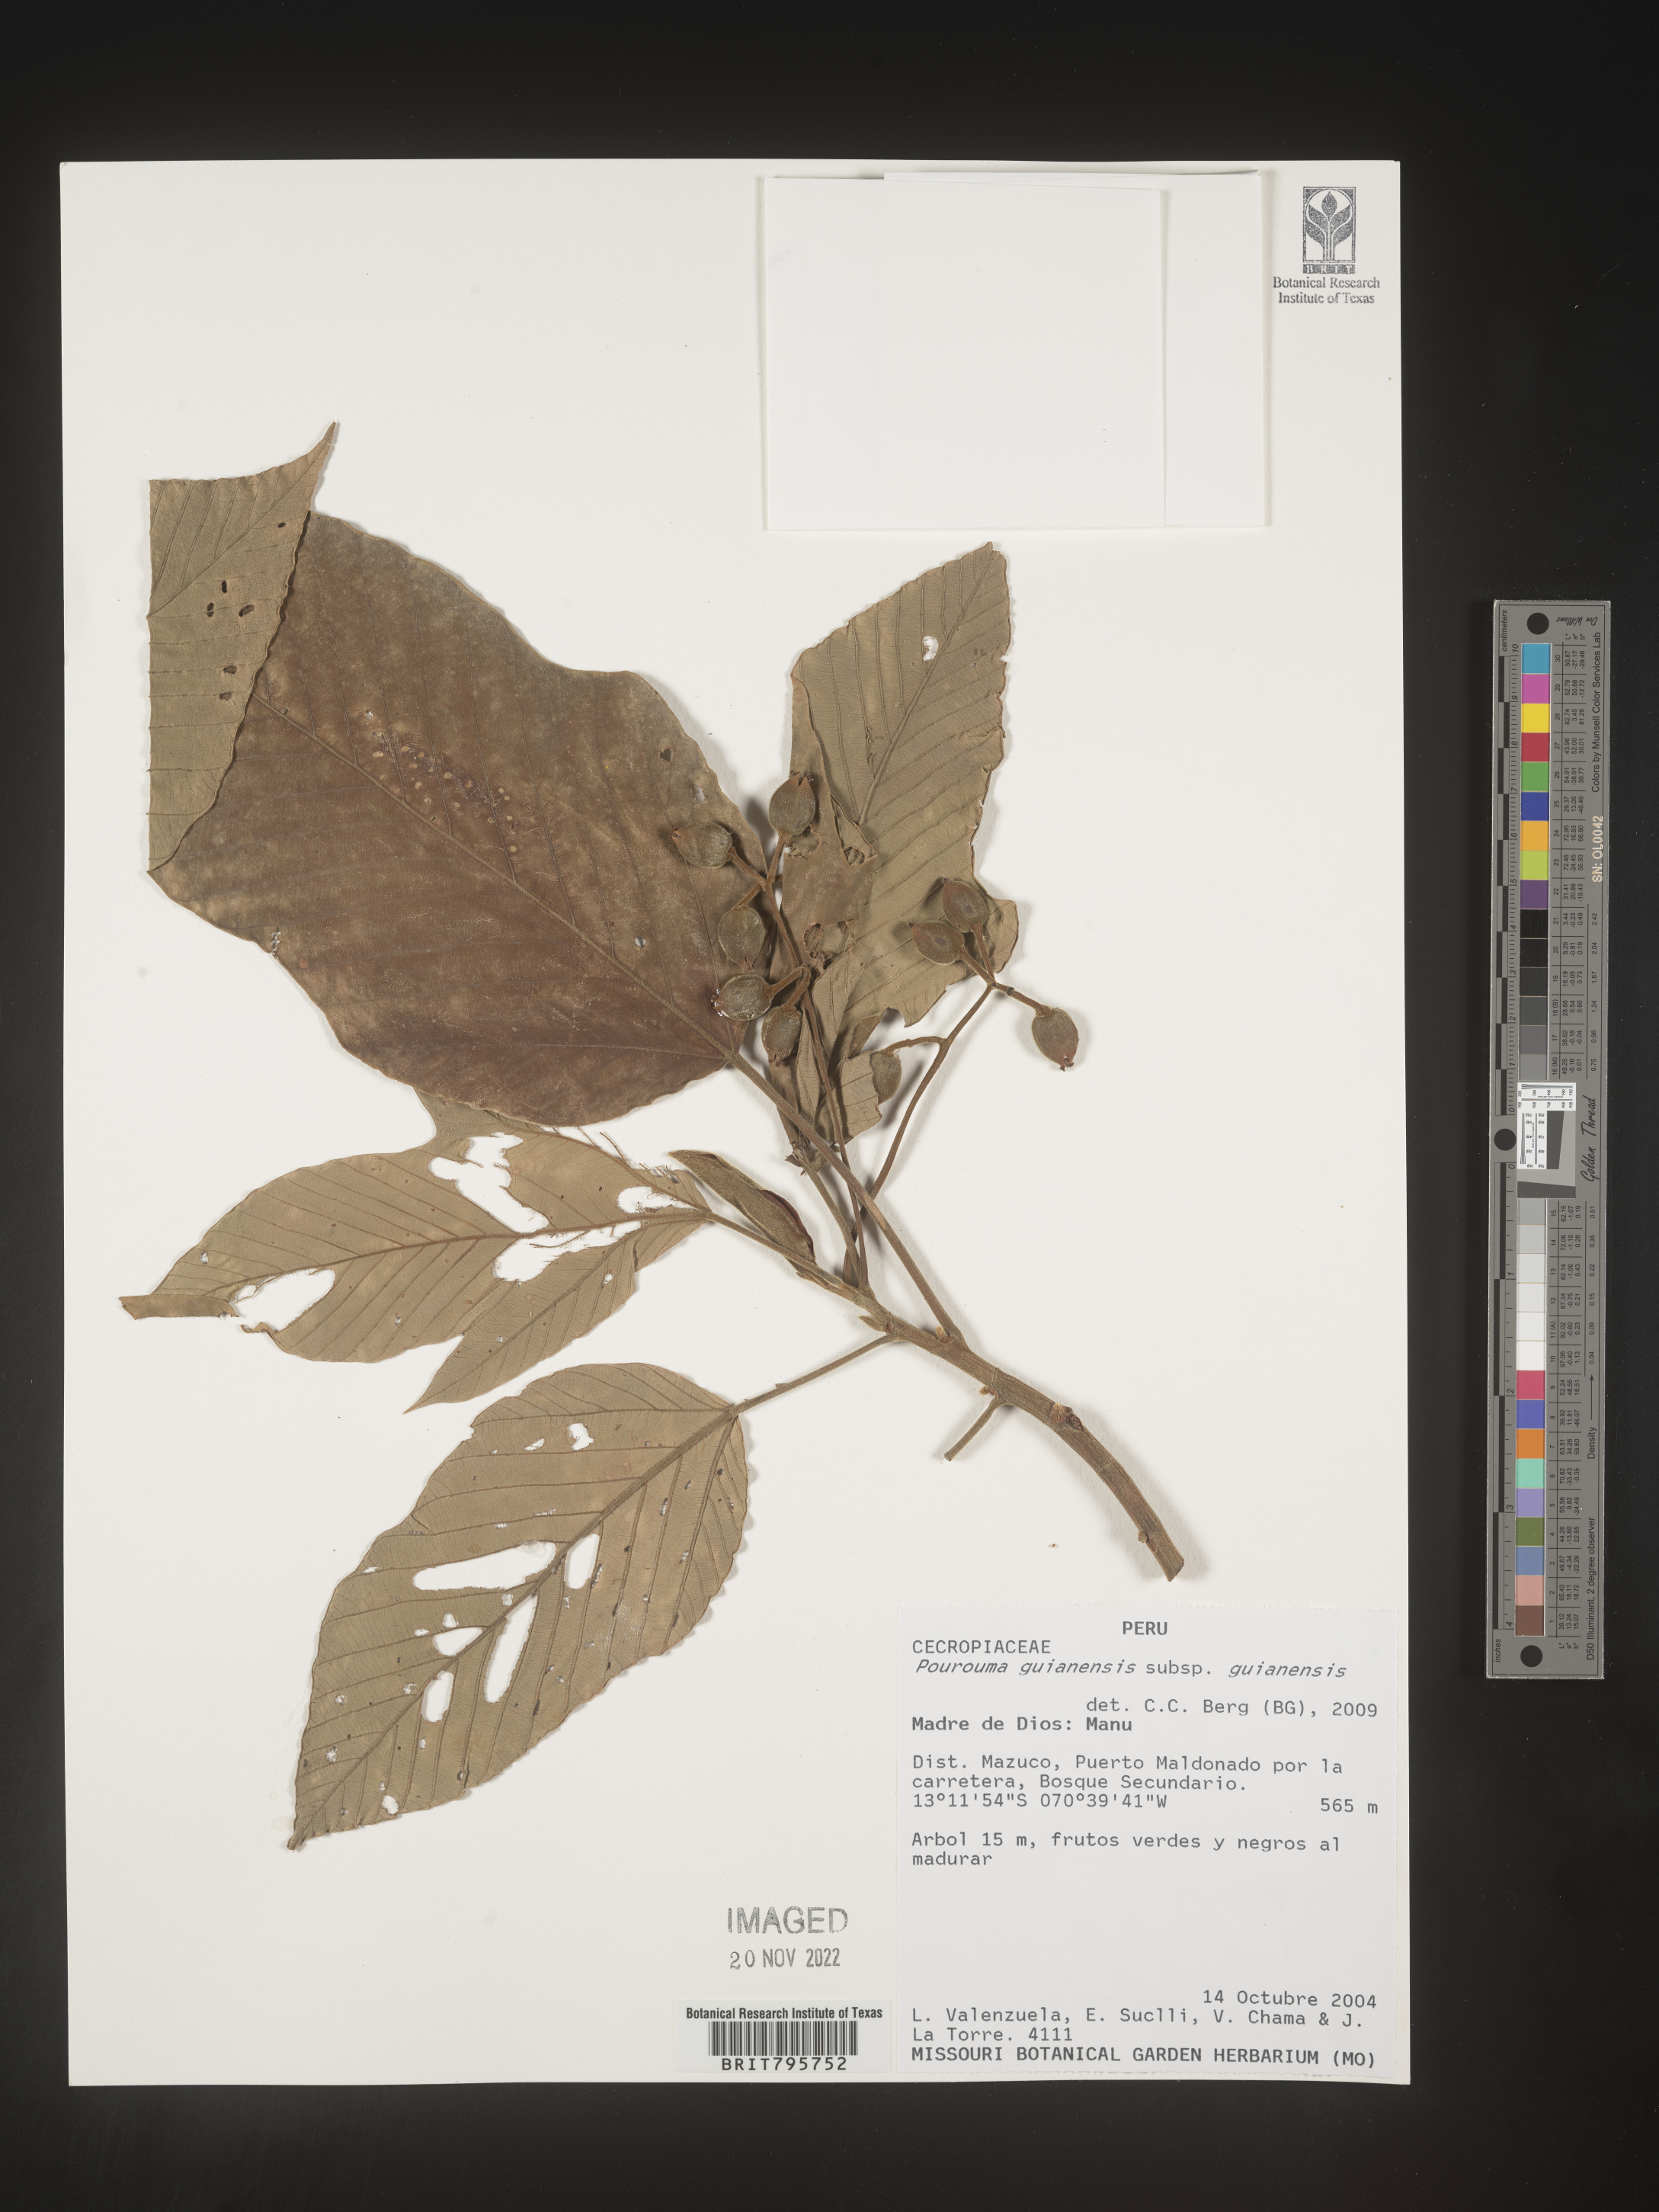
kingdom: Plantae
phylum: Tracheophyta
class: Magnoliopsida
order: Rosales
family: Urticaceae
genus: Pourouma
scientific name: Pourouma
